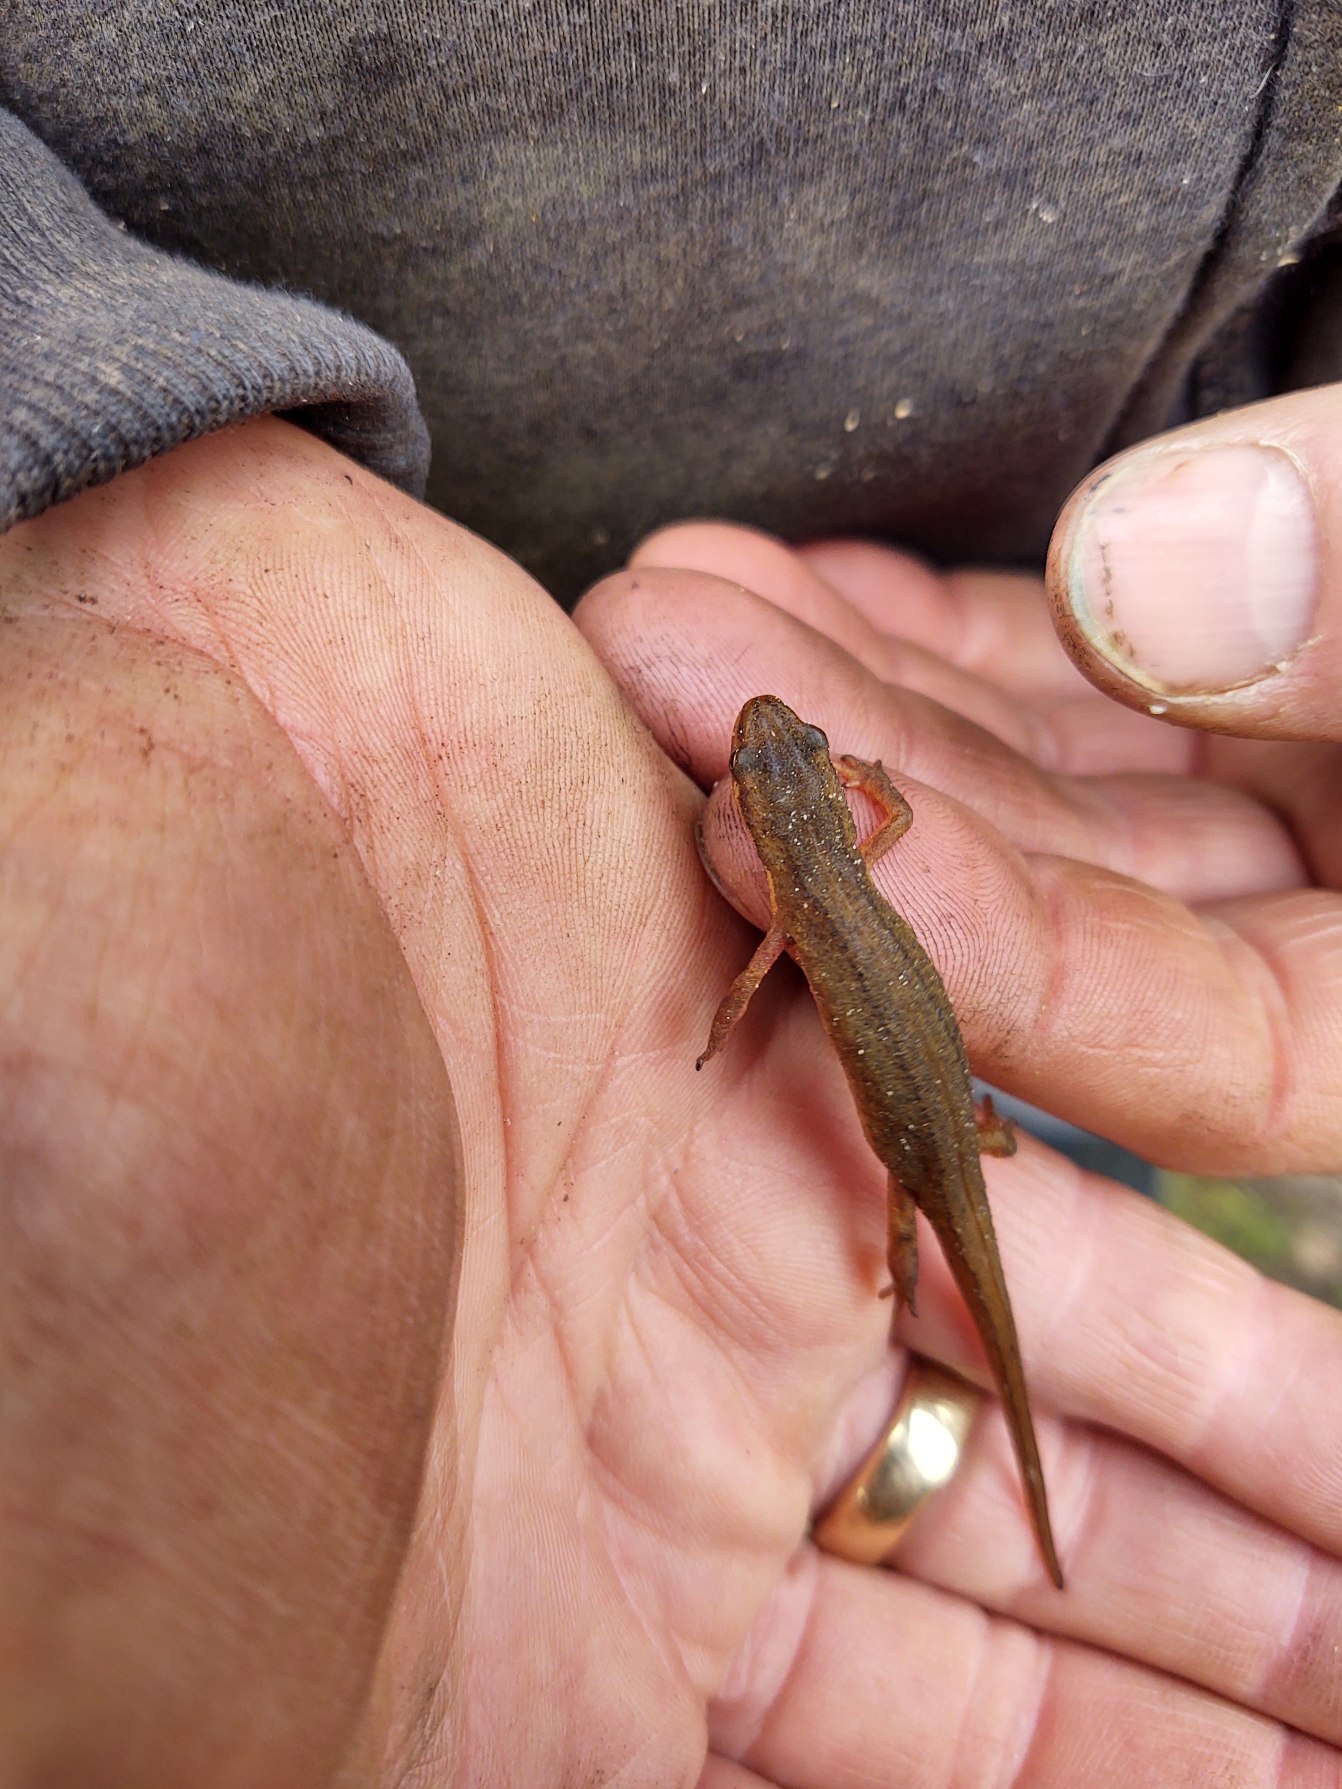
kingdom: Animalia
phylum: Chordata
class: Amphibia
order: Caudata
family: Salamandridae
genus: Lissotriton
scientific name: Lissotriton vulgaris
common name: Lille vandsalamander
